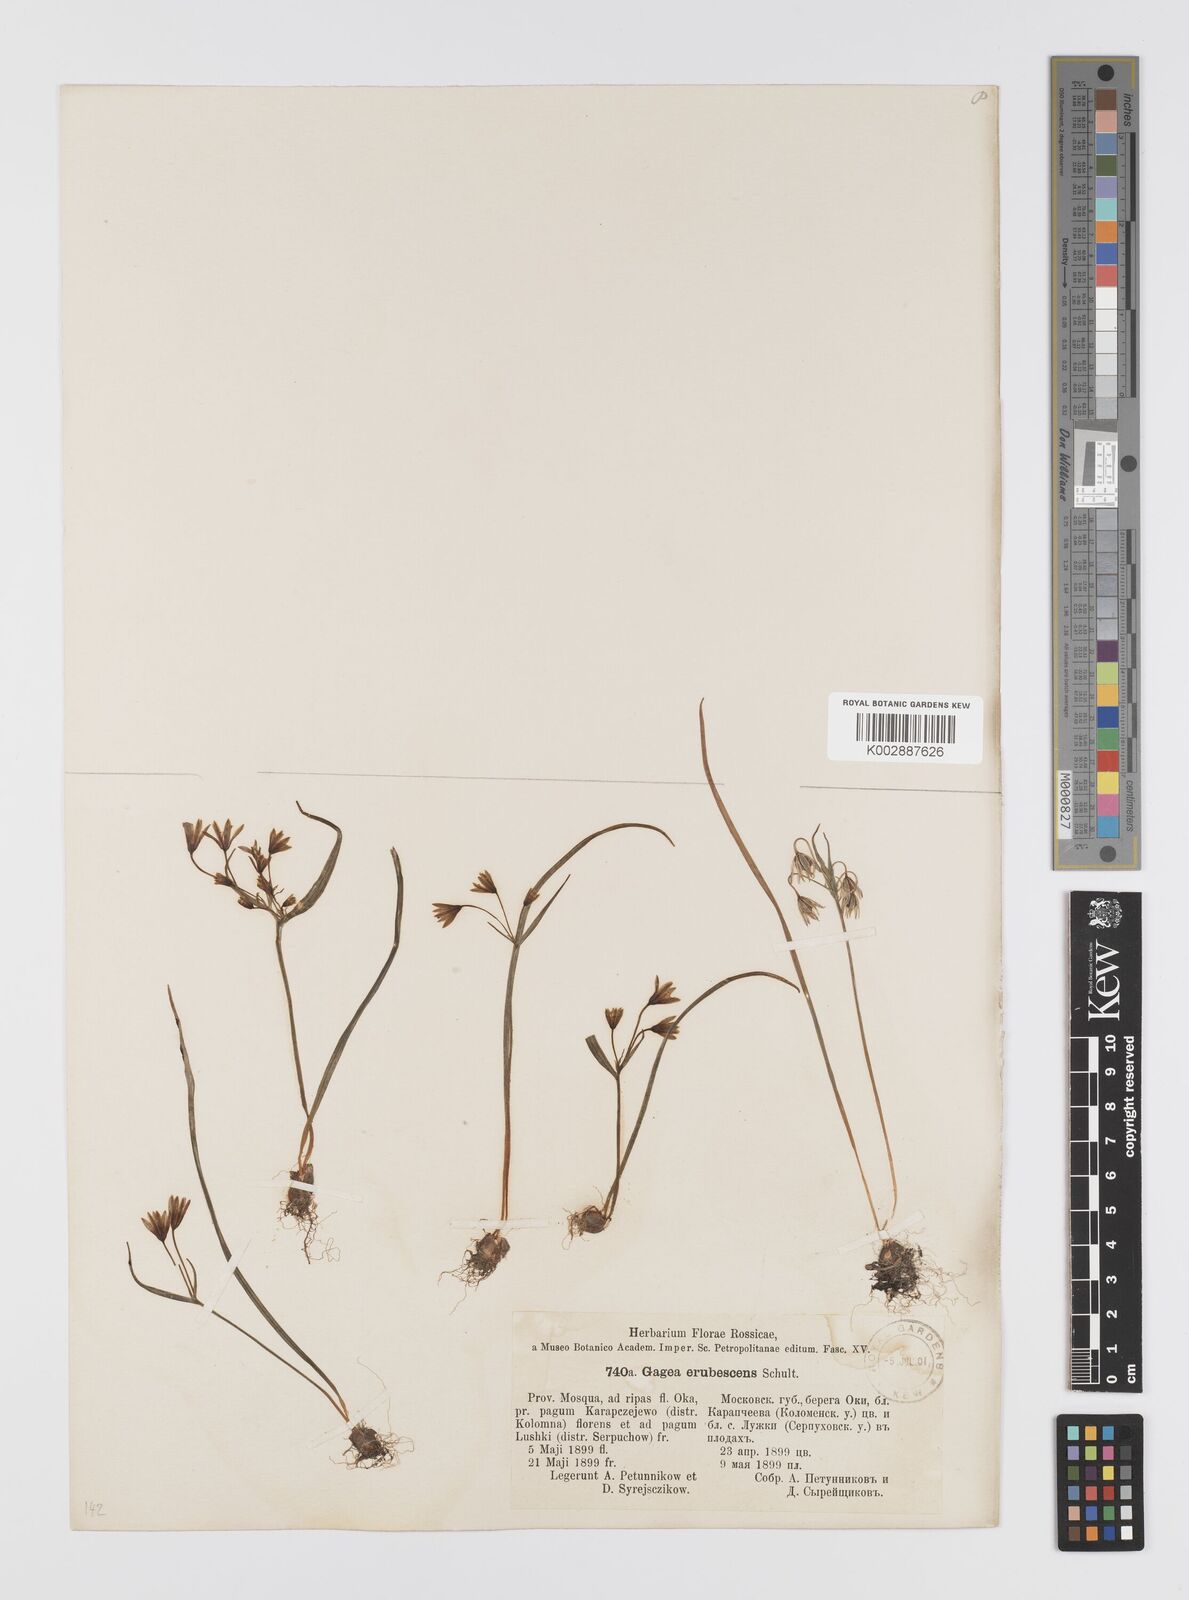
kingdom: Plantae
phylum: Tracheophyta
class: Liliopsida
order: Liliales
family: Liliaceae
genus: Gagea
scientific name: Gagea fragifera
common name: Lily
